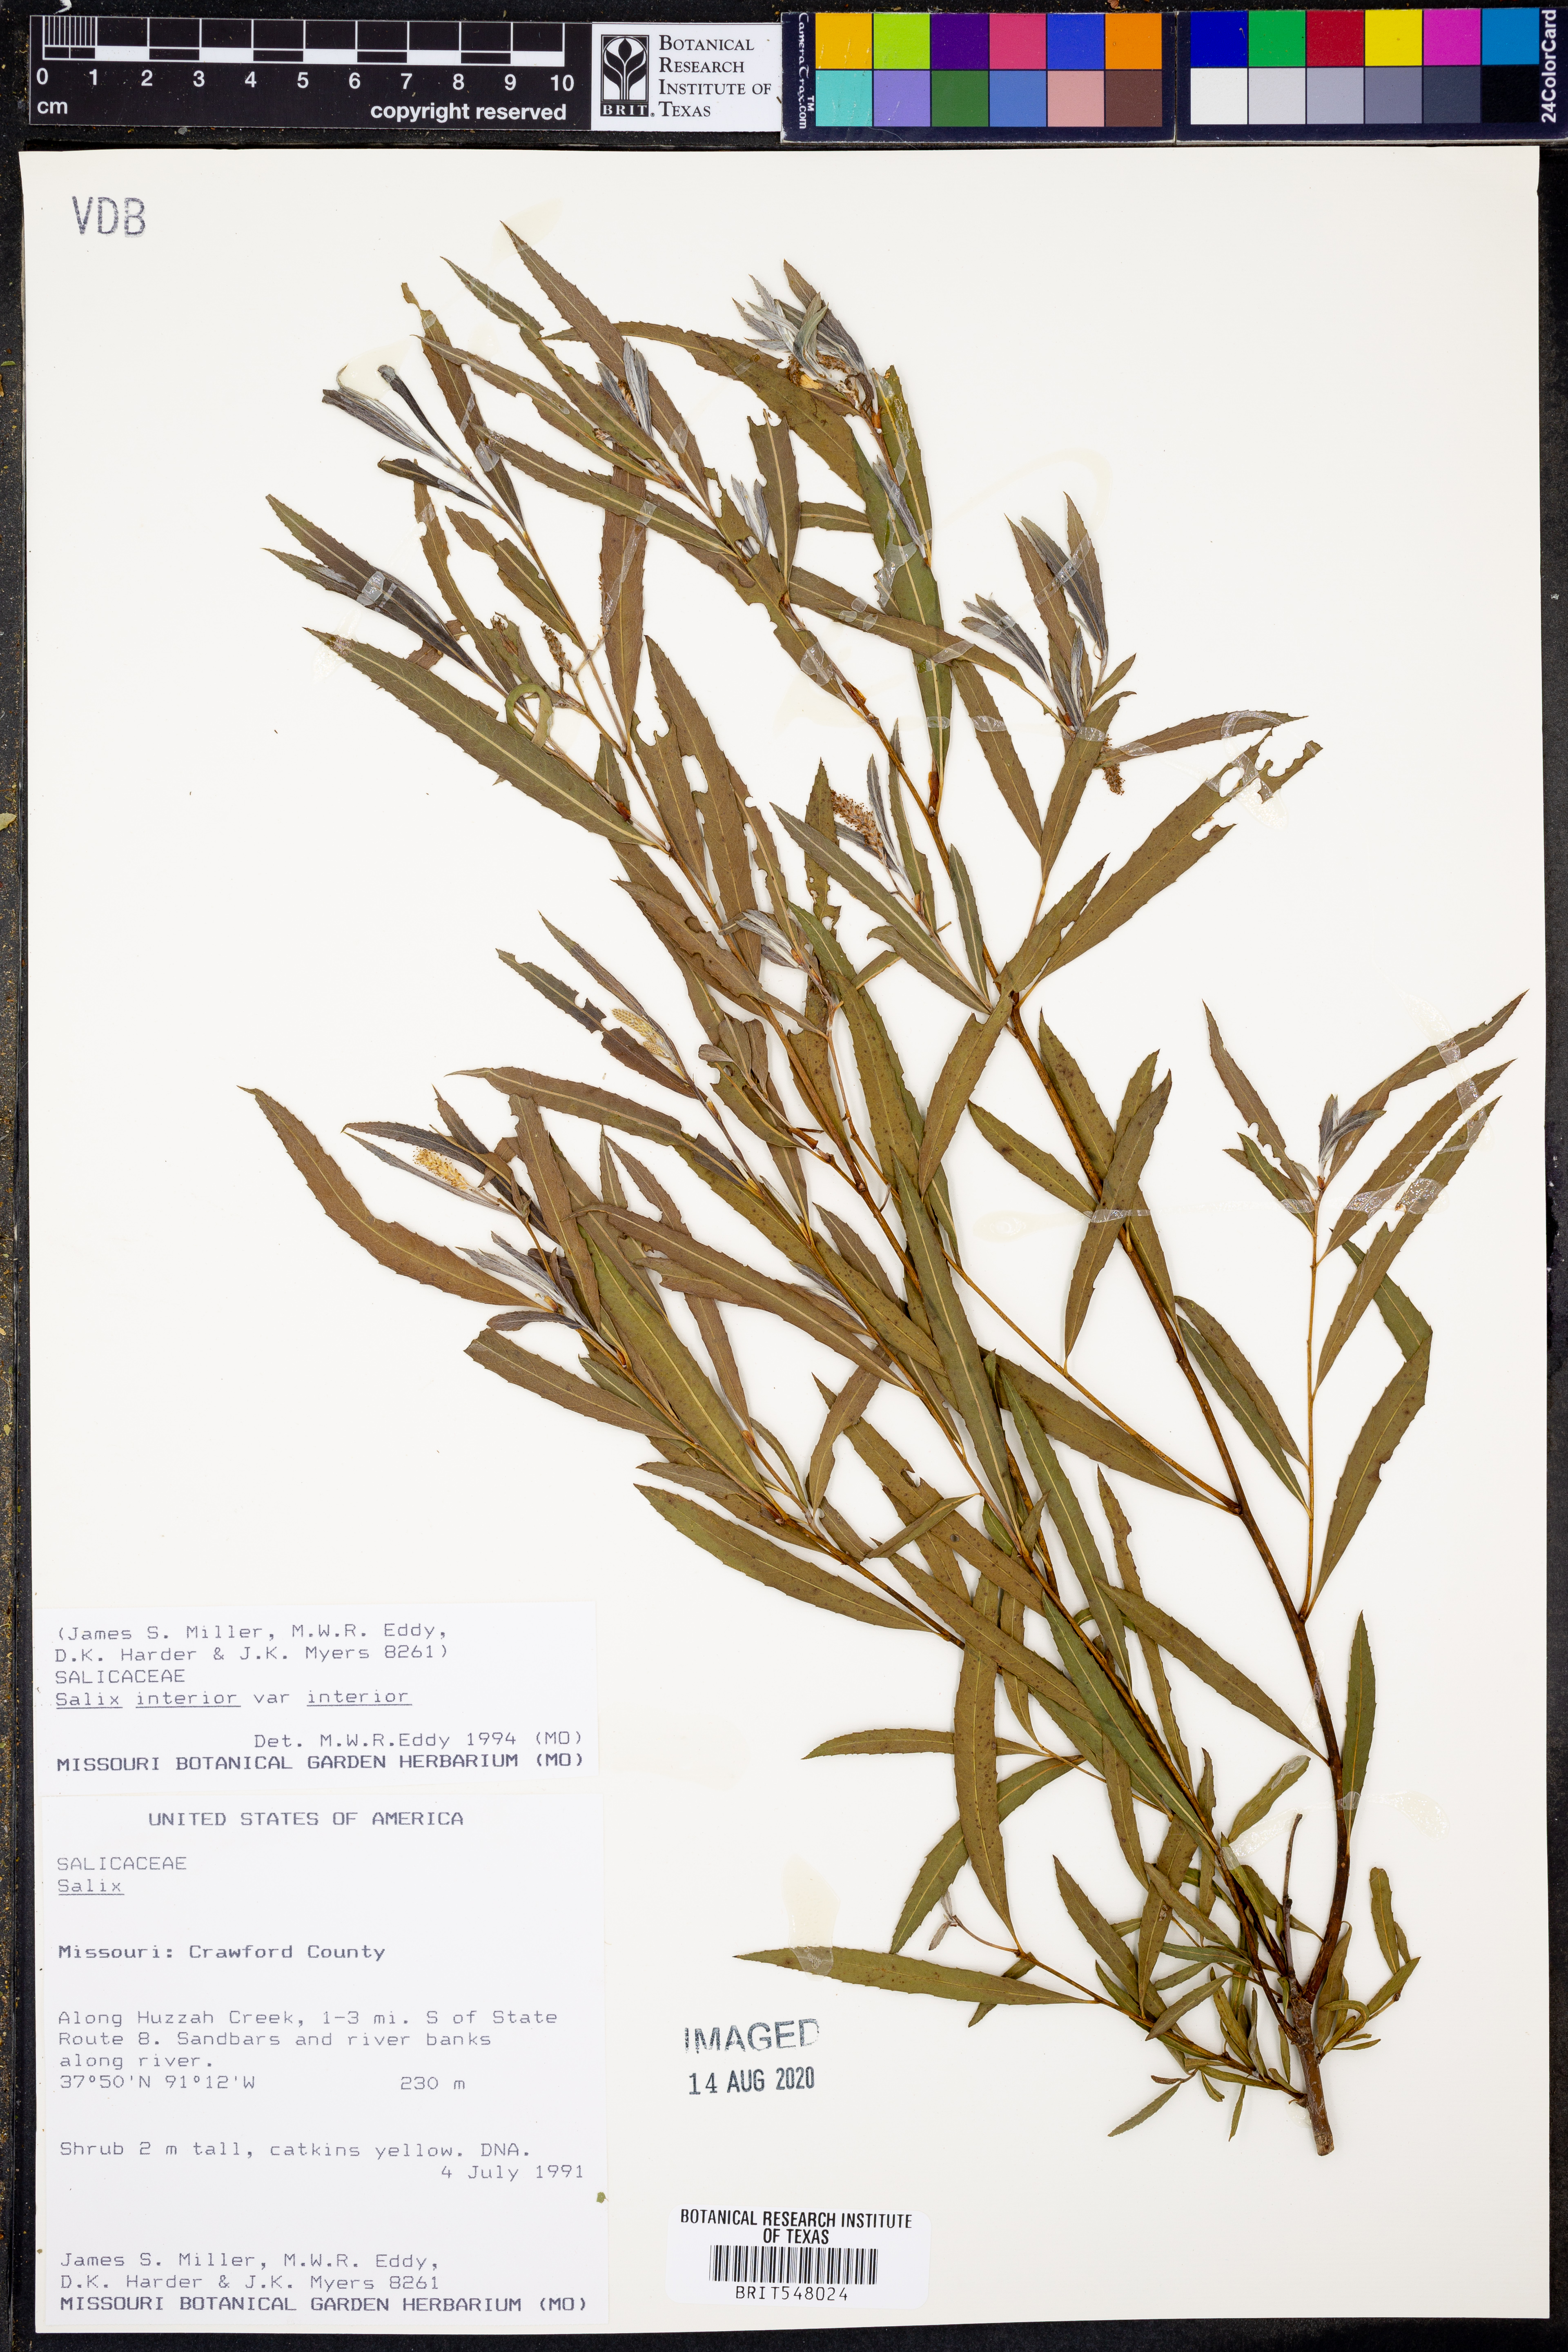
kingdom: Plantae
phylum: Tracheophyta
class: Magnoliopsida
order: Malpighiales
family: Salicaceae
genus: Salix
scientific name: Salix interior
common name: Sandbar willow
